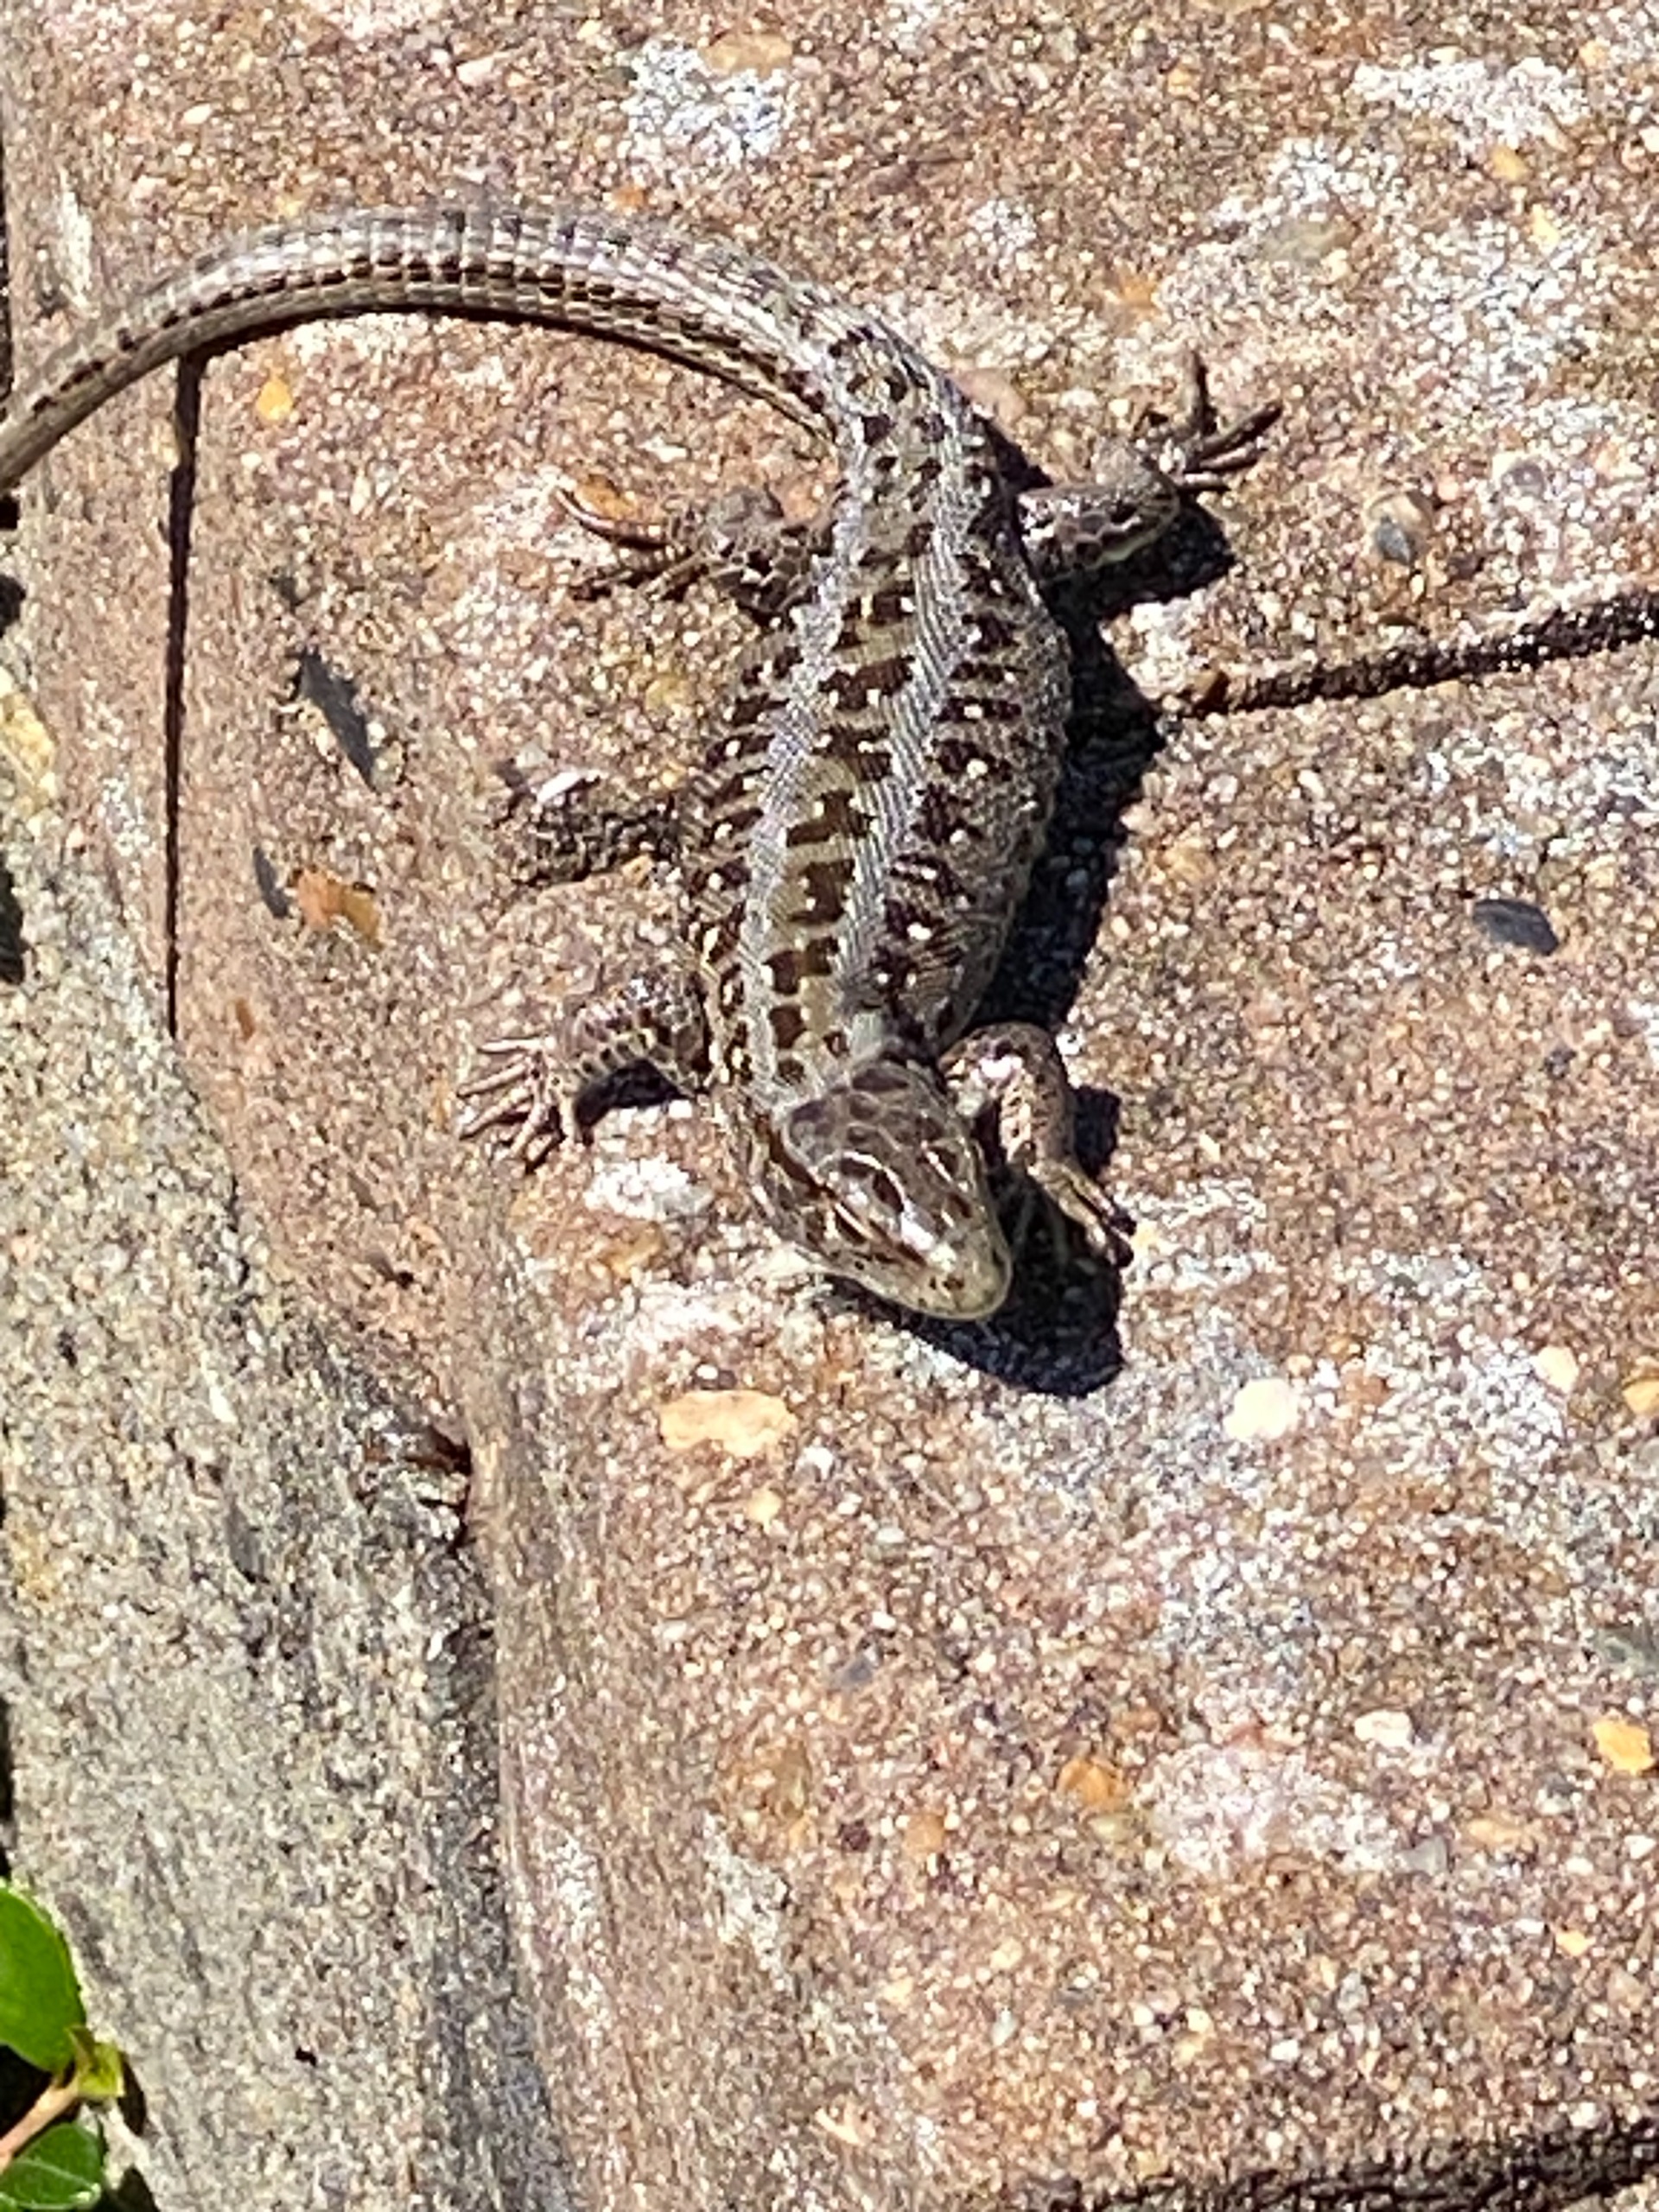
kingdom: Animalia
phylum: Chordata
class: Squamata
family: Lacertidae
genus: Lacerta
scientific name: Lacerta agilis
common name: Markfirben
